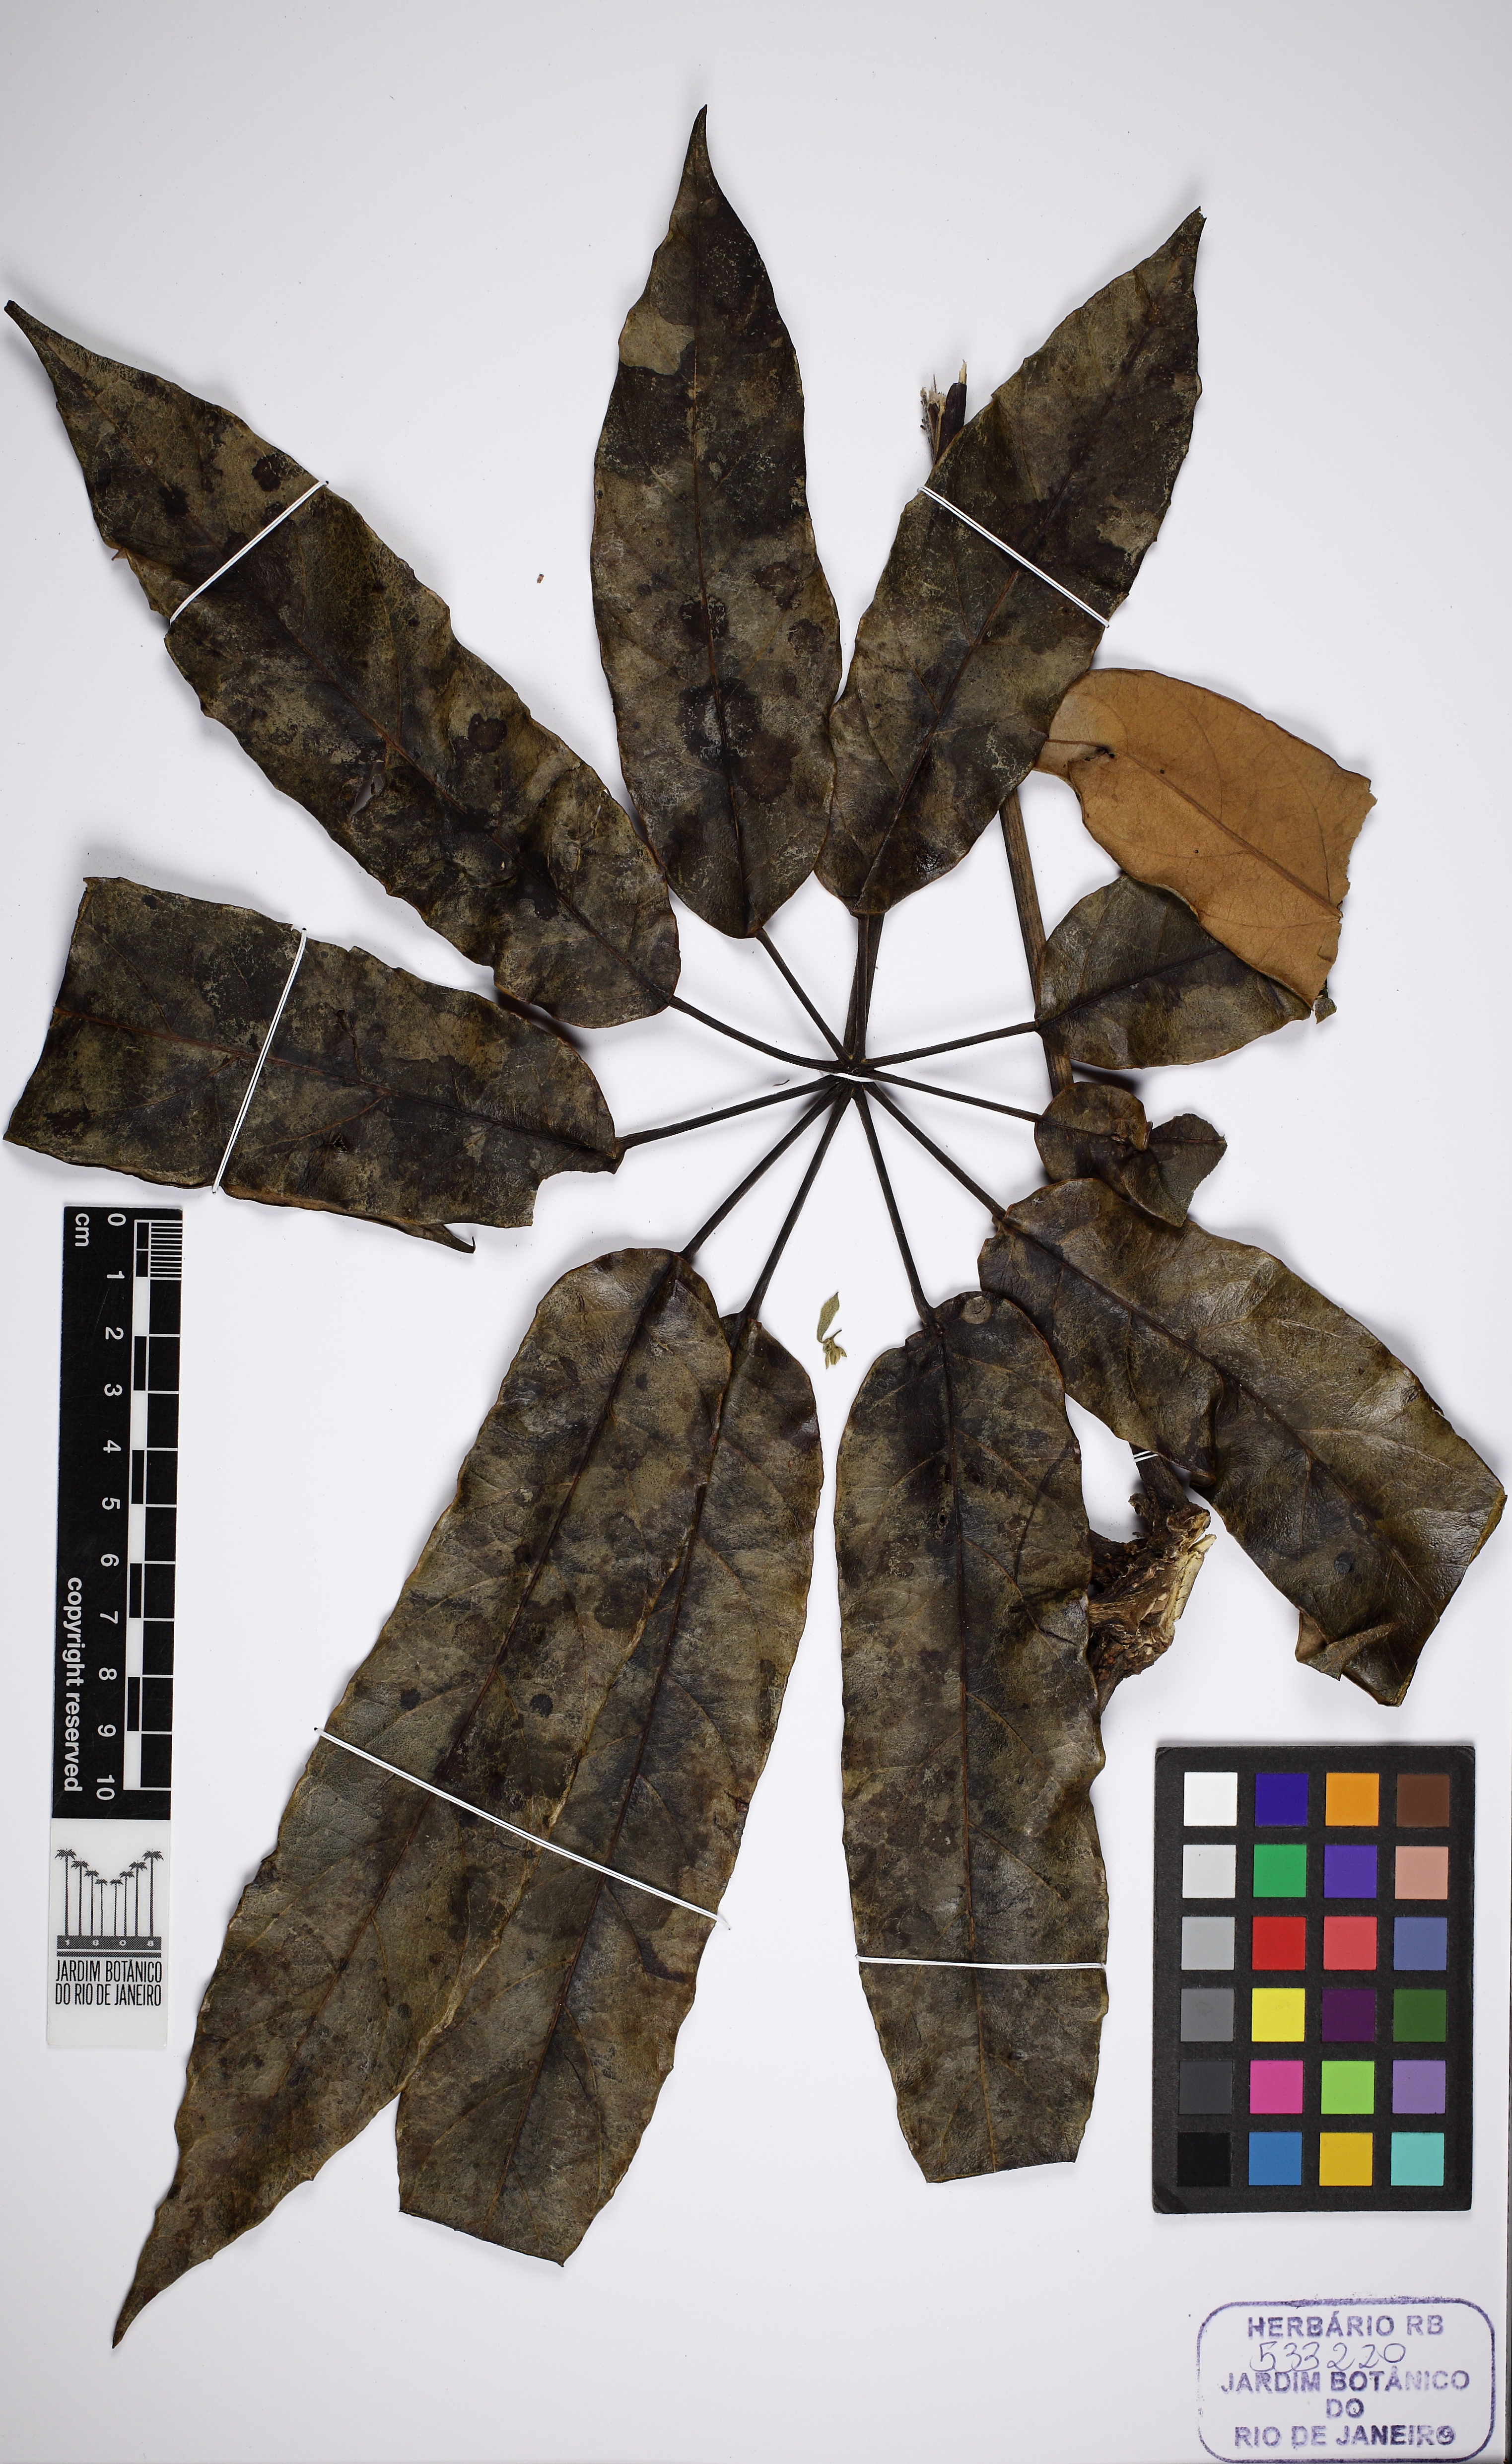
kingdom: Plantae
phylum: Tracheophyta
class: Magnoliopsida
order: Apiales
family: Araliaceae
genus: Didymopanax
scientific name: Didymopanax morototoni
